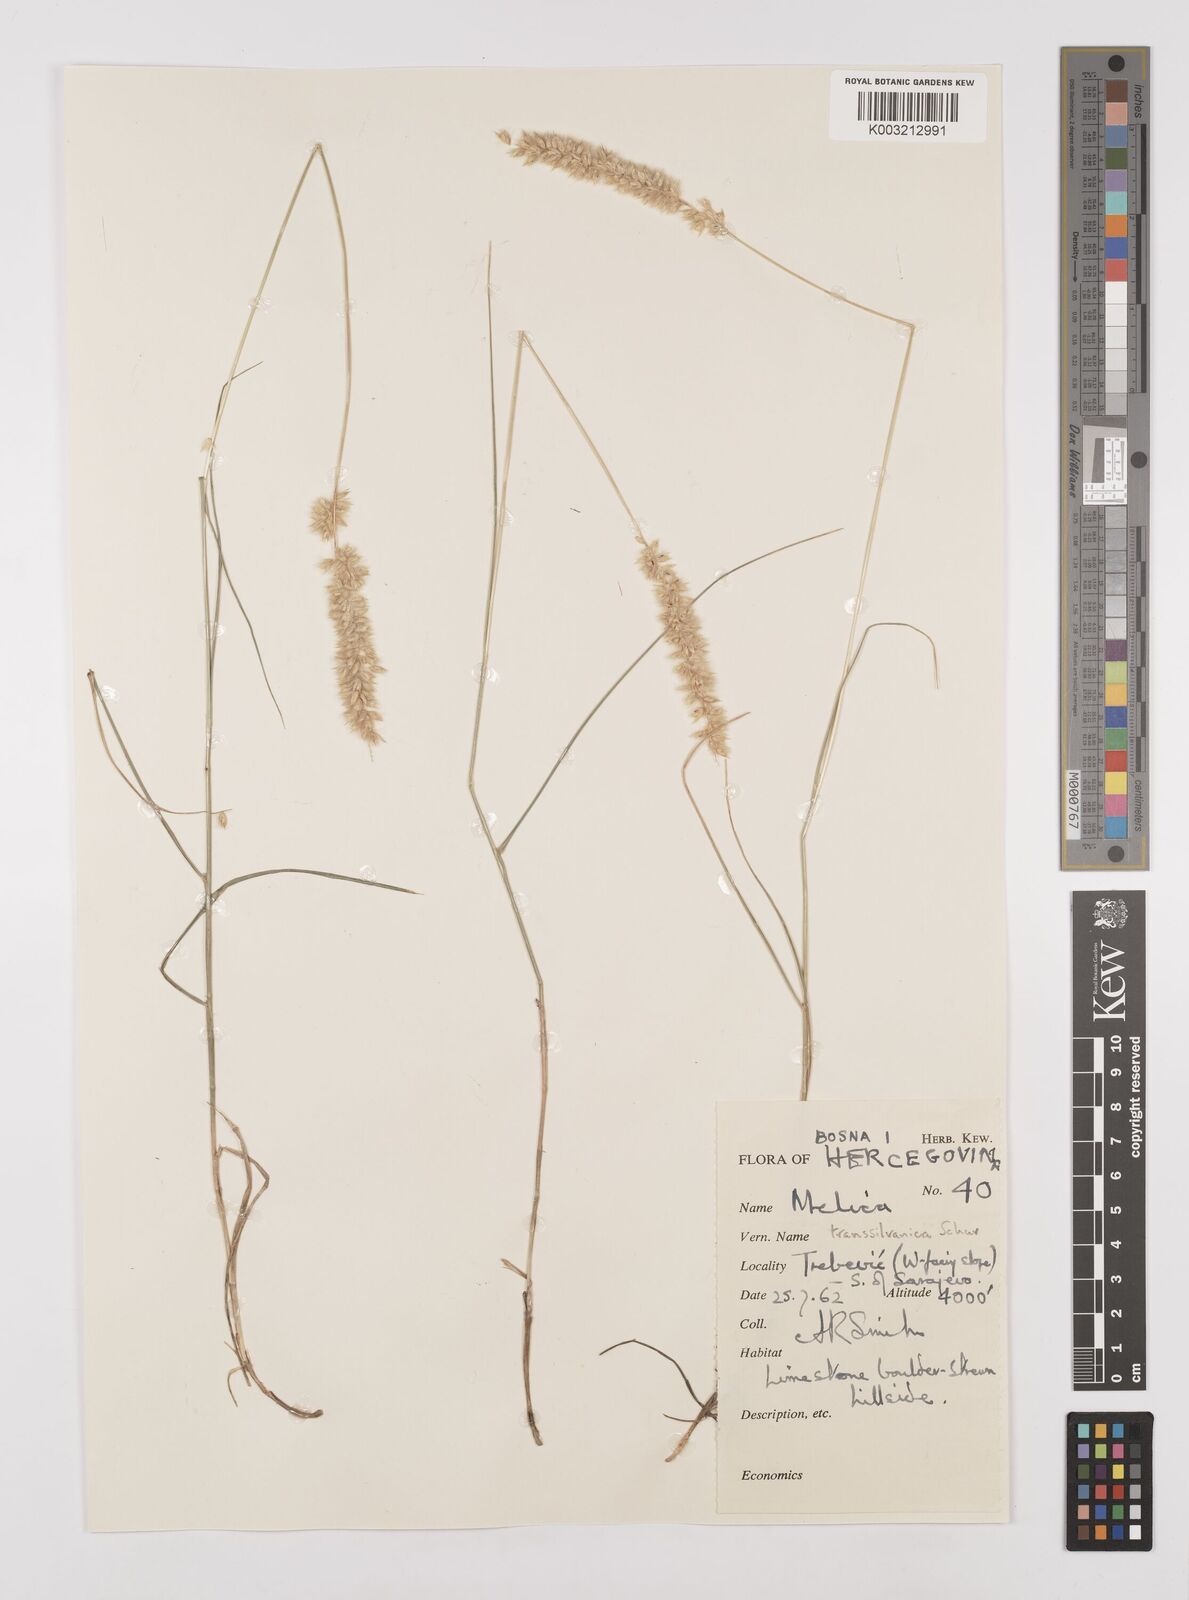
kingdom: Plantae
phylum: Tracheophyta
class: Liliopsida
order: Poales
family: Poaceae
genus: Melica
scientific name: Melica transsilvanica
